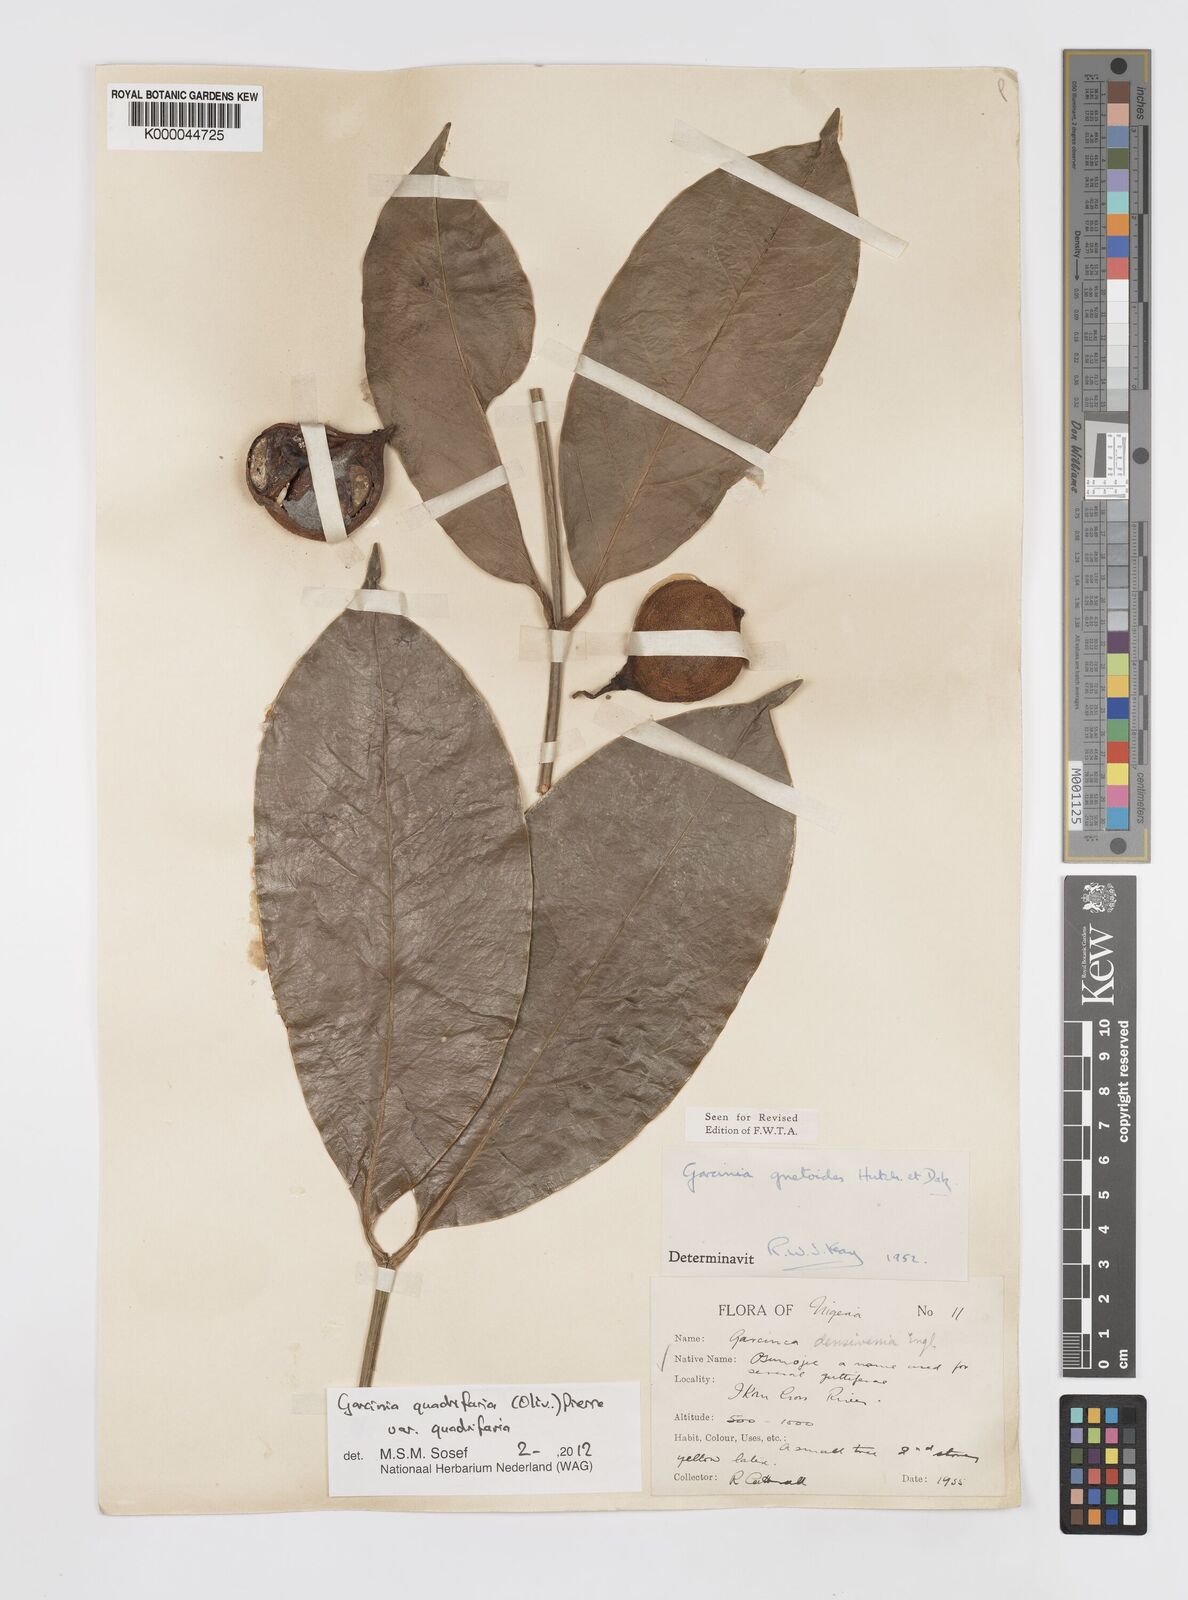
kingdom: Plantae
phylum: Tracheophyta
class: Magnoliopsida
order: Malpighiales
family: Clusiaceae
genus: Garcinia
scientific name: Garcinia gnetoides
